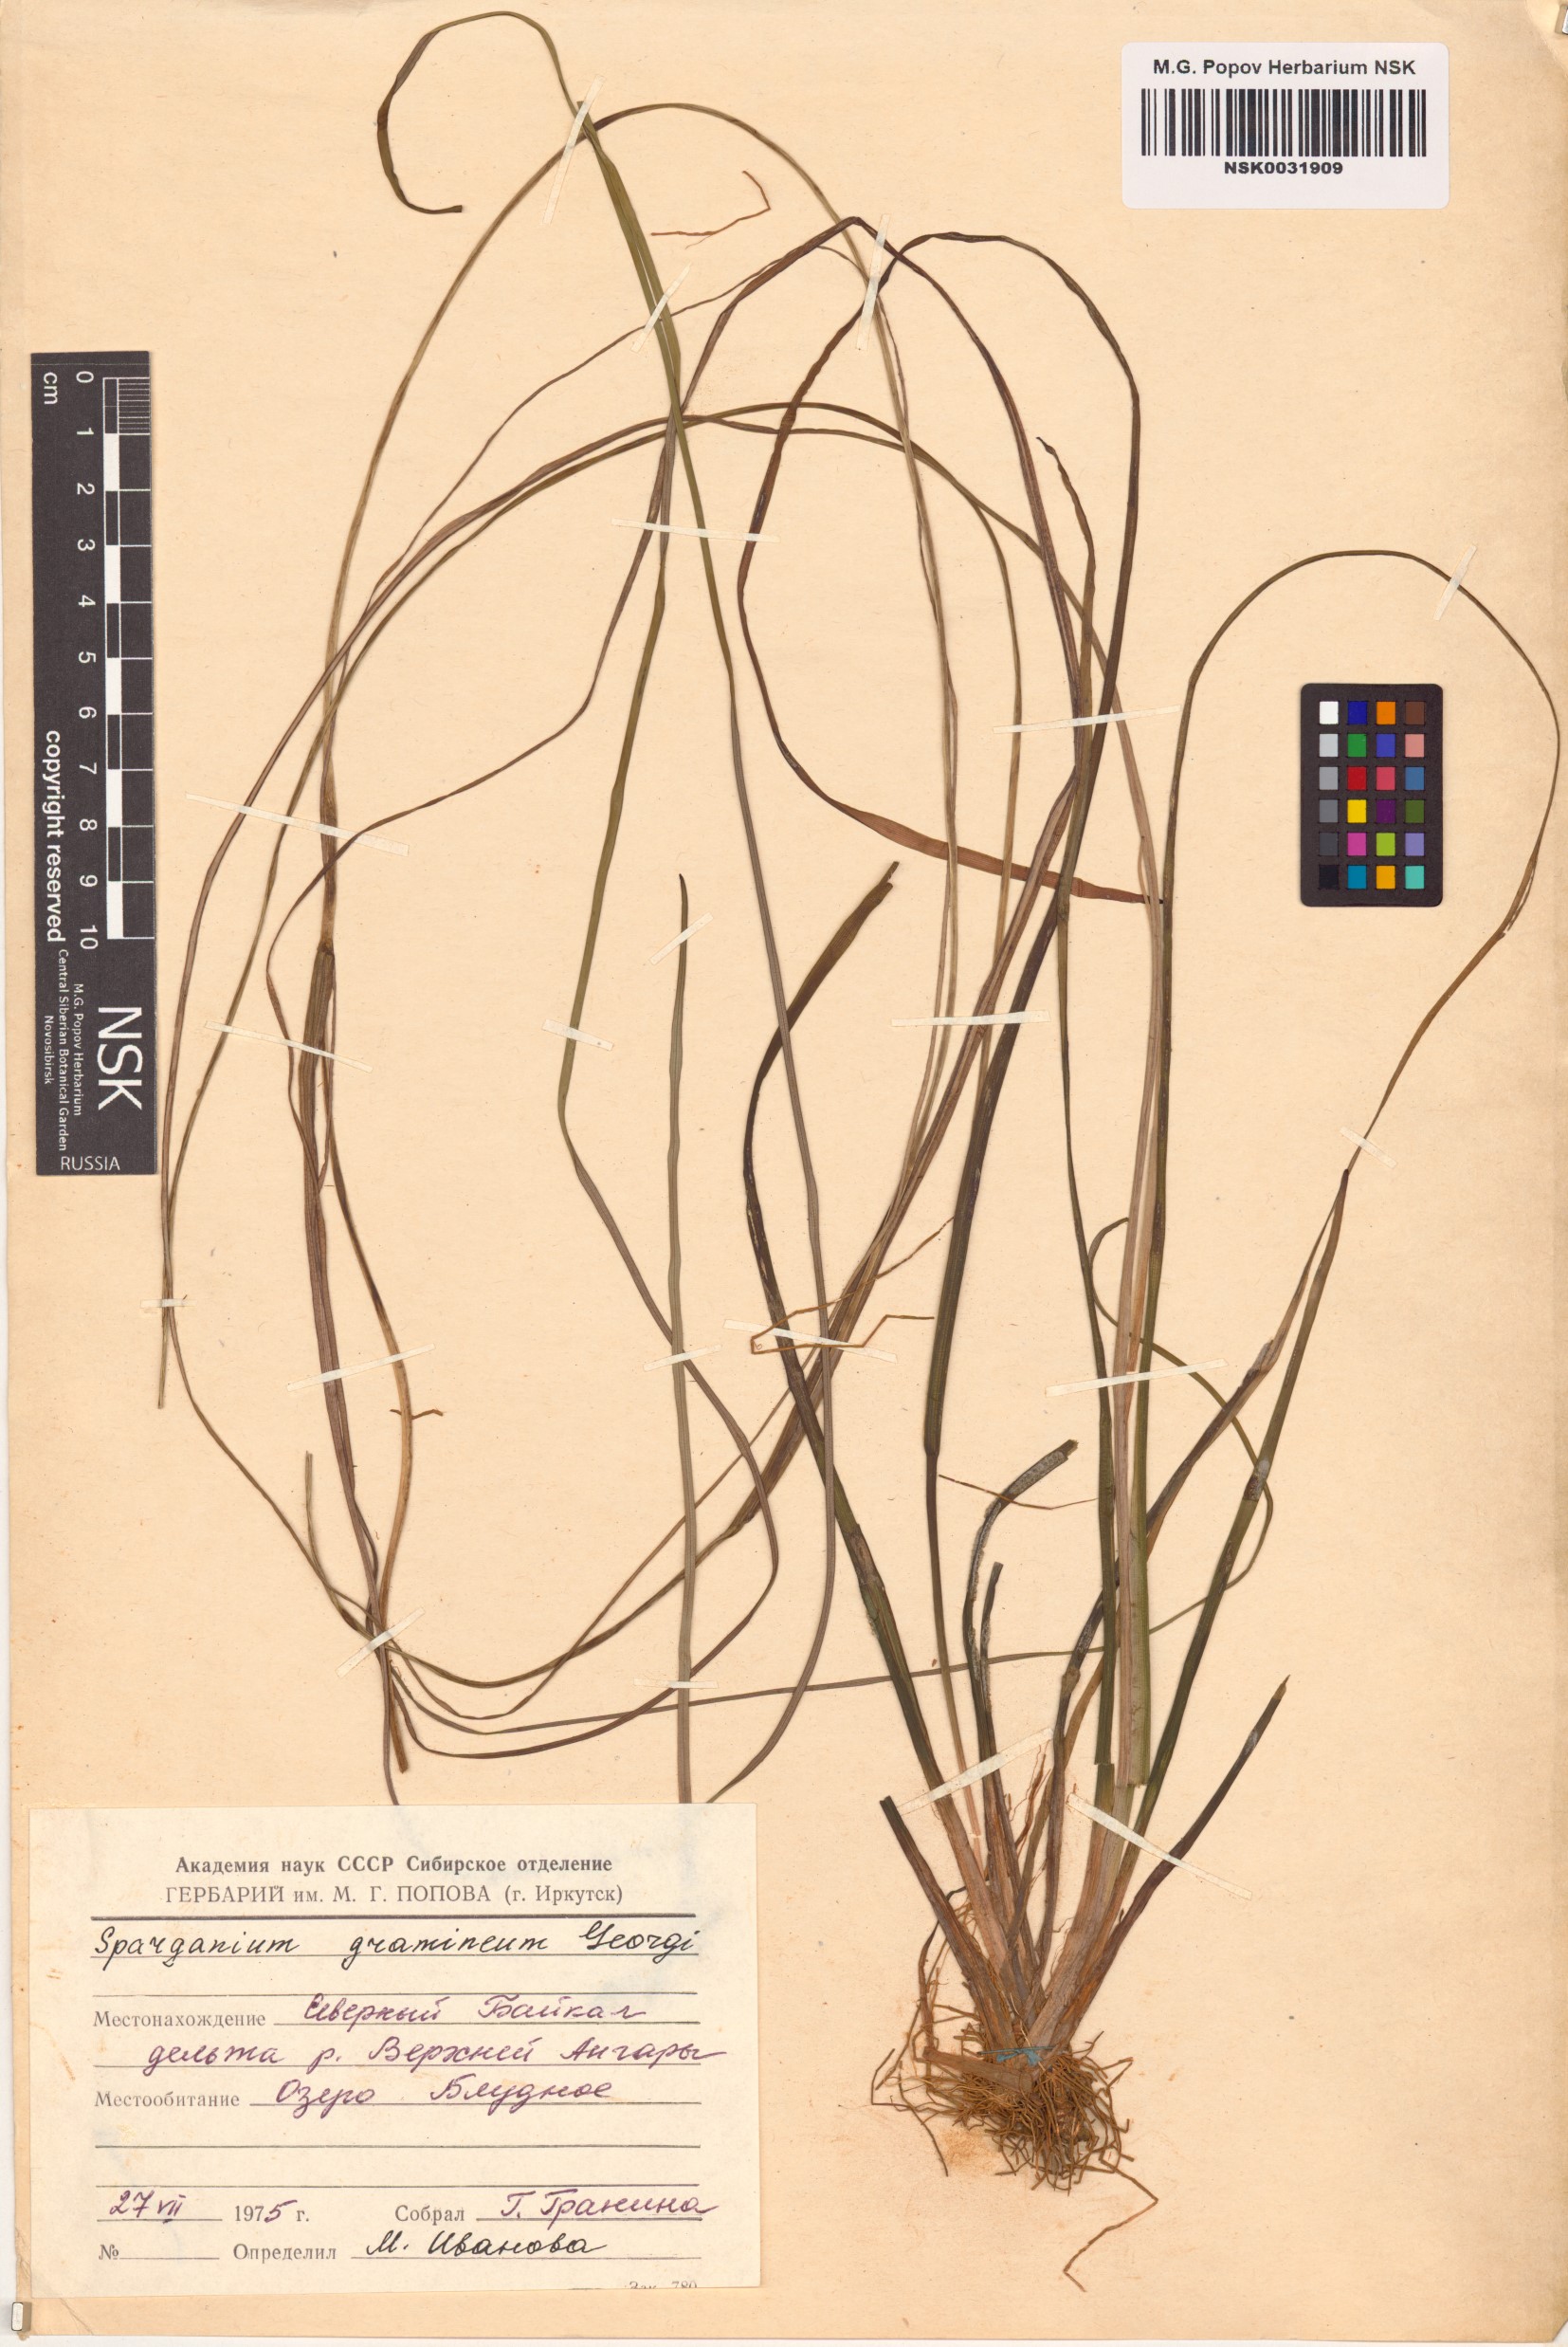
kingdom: Plantae
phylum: Tracheophyta
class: Liliopsida
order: Poales
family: Typhaceae
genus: Sparganium
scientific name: Sparganium gramineum
